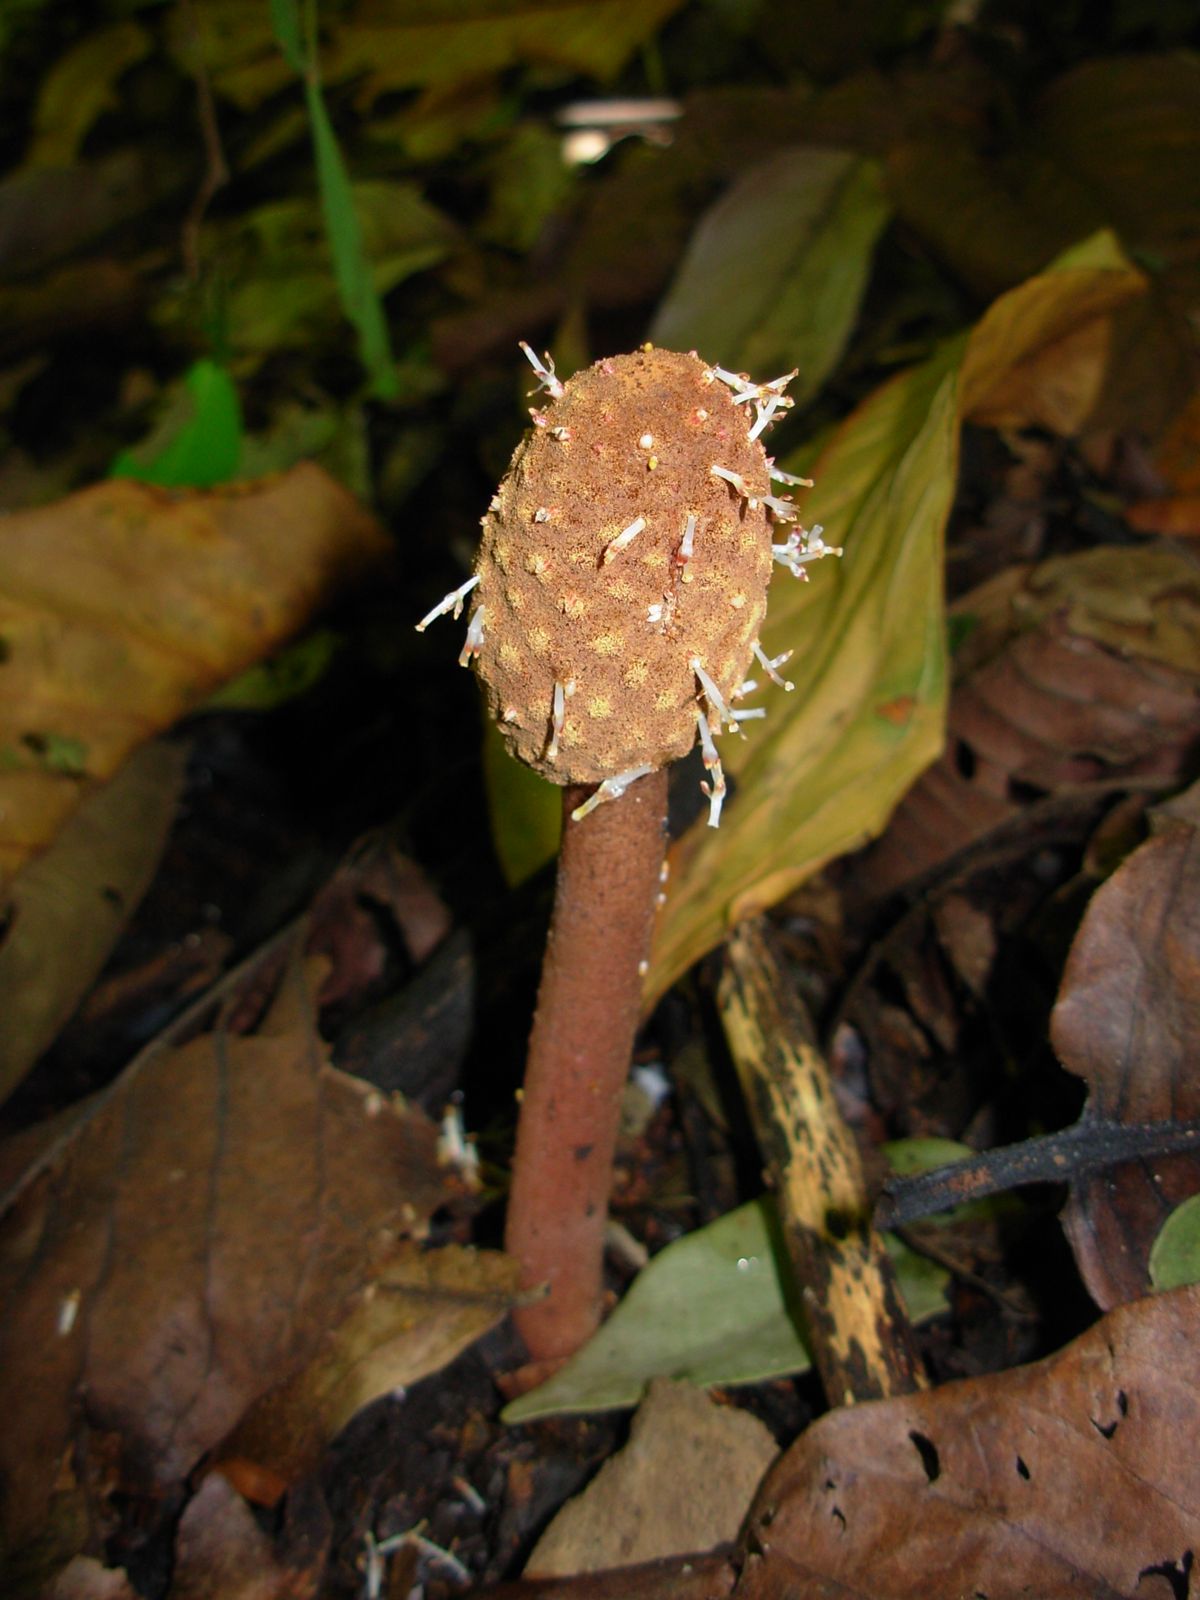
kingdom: Plantae
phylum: Tracheophyta
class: Magnoliopsida
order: Santalales
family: Balanophoraceae
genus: Helosis
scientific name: Helosis cayennensis
